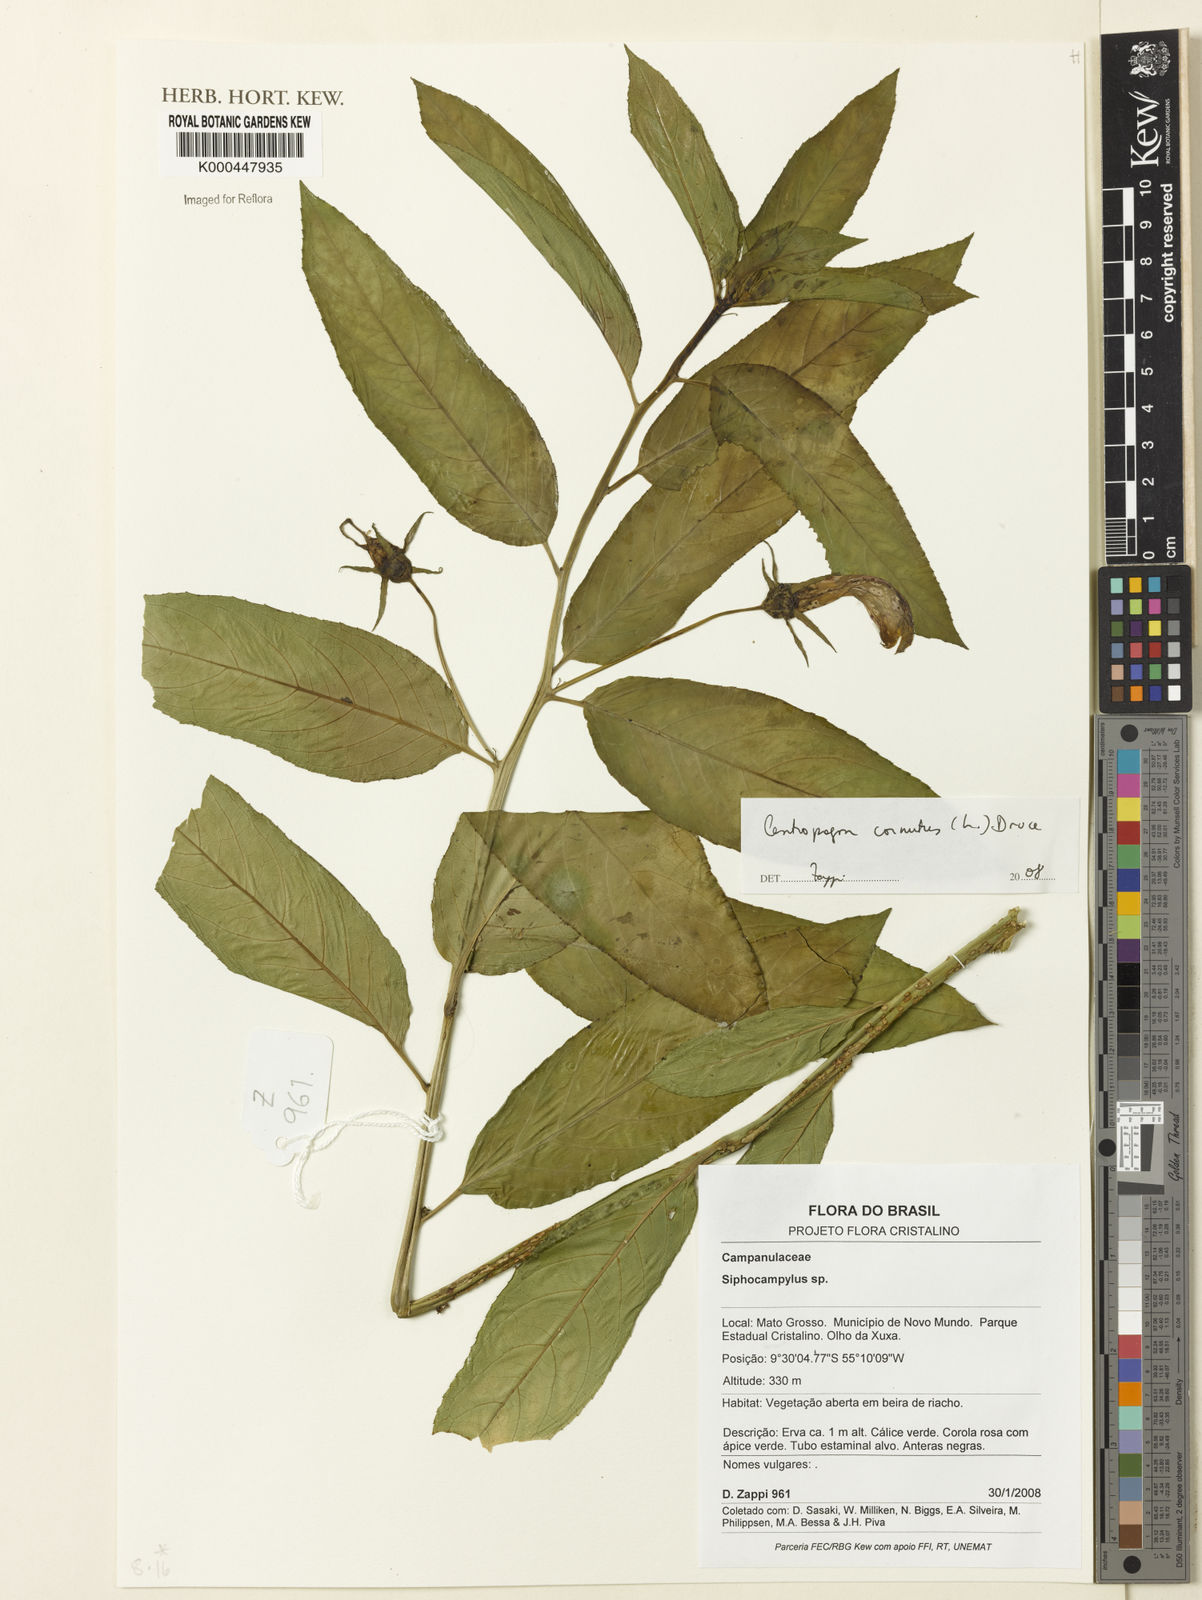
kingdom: Plantae
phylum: Tracheophyta
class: Magnoliopsida
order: Asterales
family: Campanulaceae
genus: Centropogon
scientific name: Centropogon cornutus
